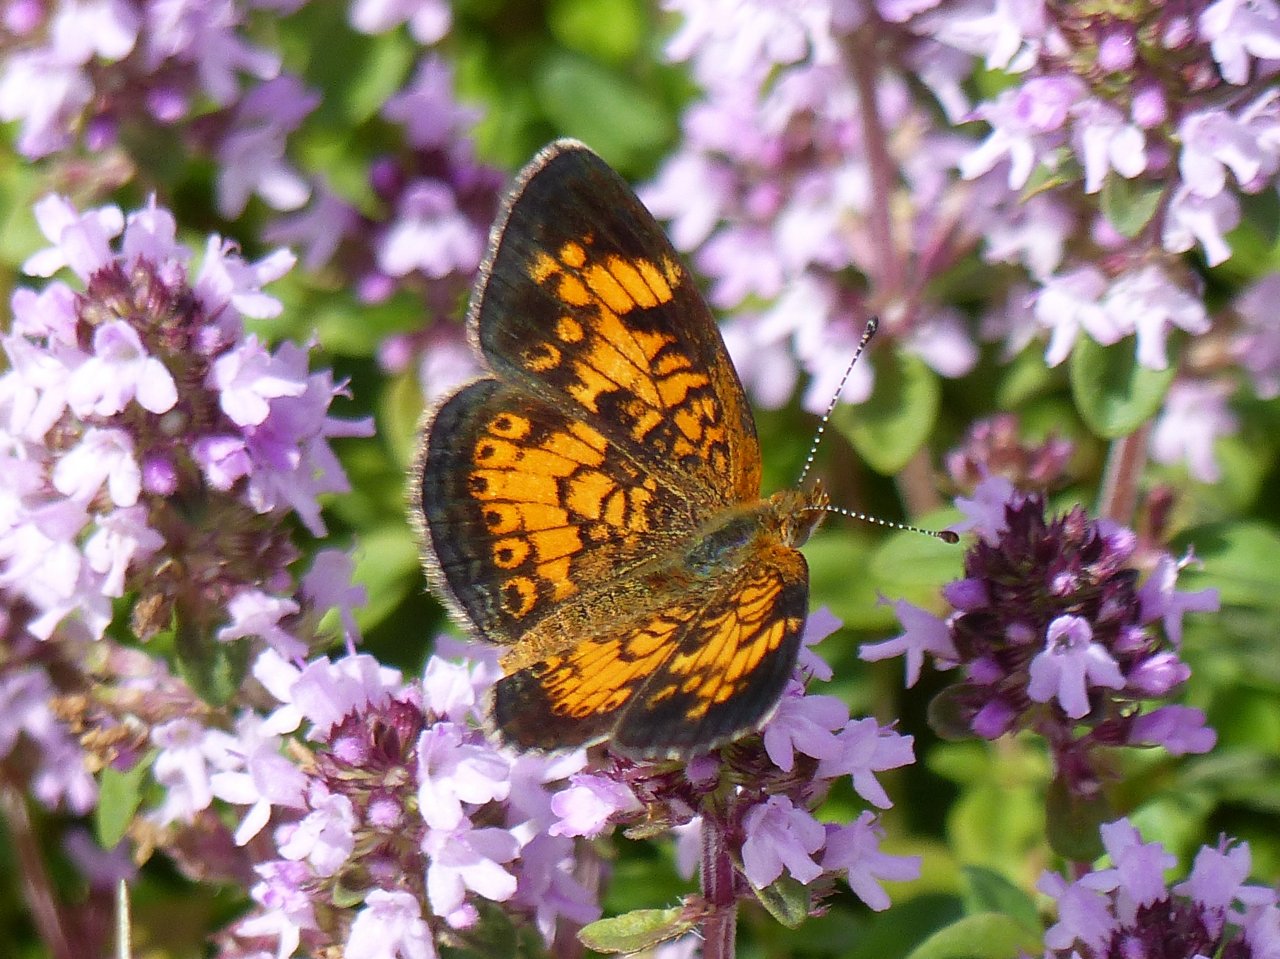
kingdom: Animalia
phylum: Arthropoda
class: Insecta
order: Lepidoptera
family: Nymphalidae
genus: Phyciodes
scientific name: Phyciodes tharos
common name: Pearl Crescent
